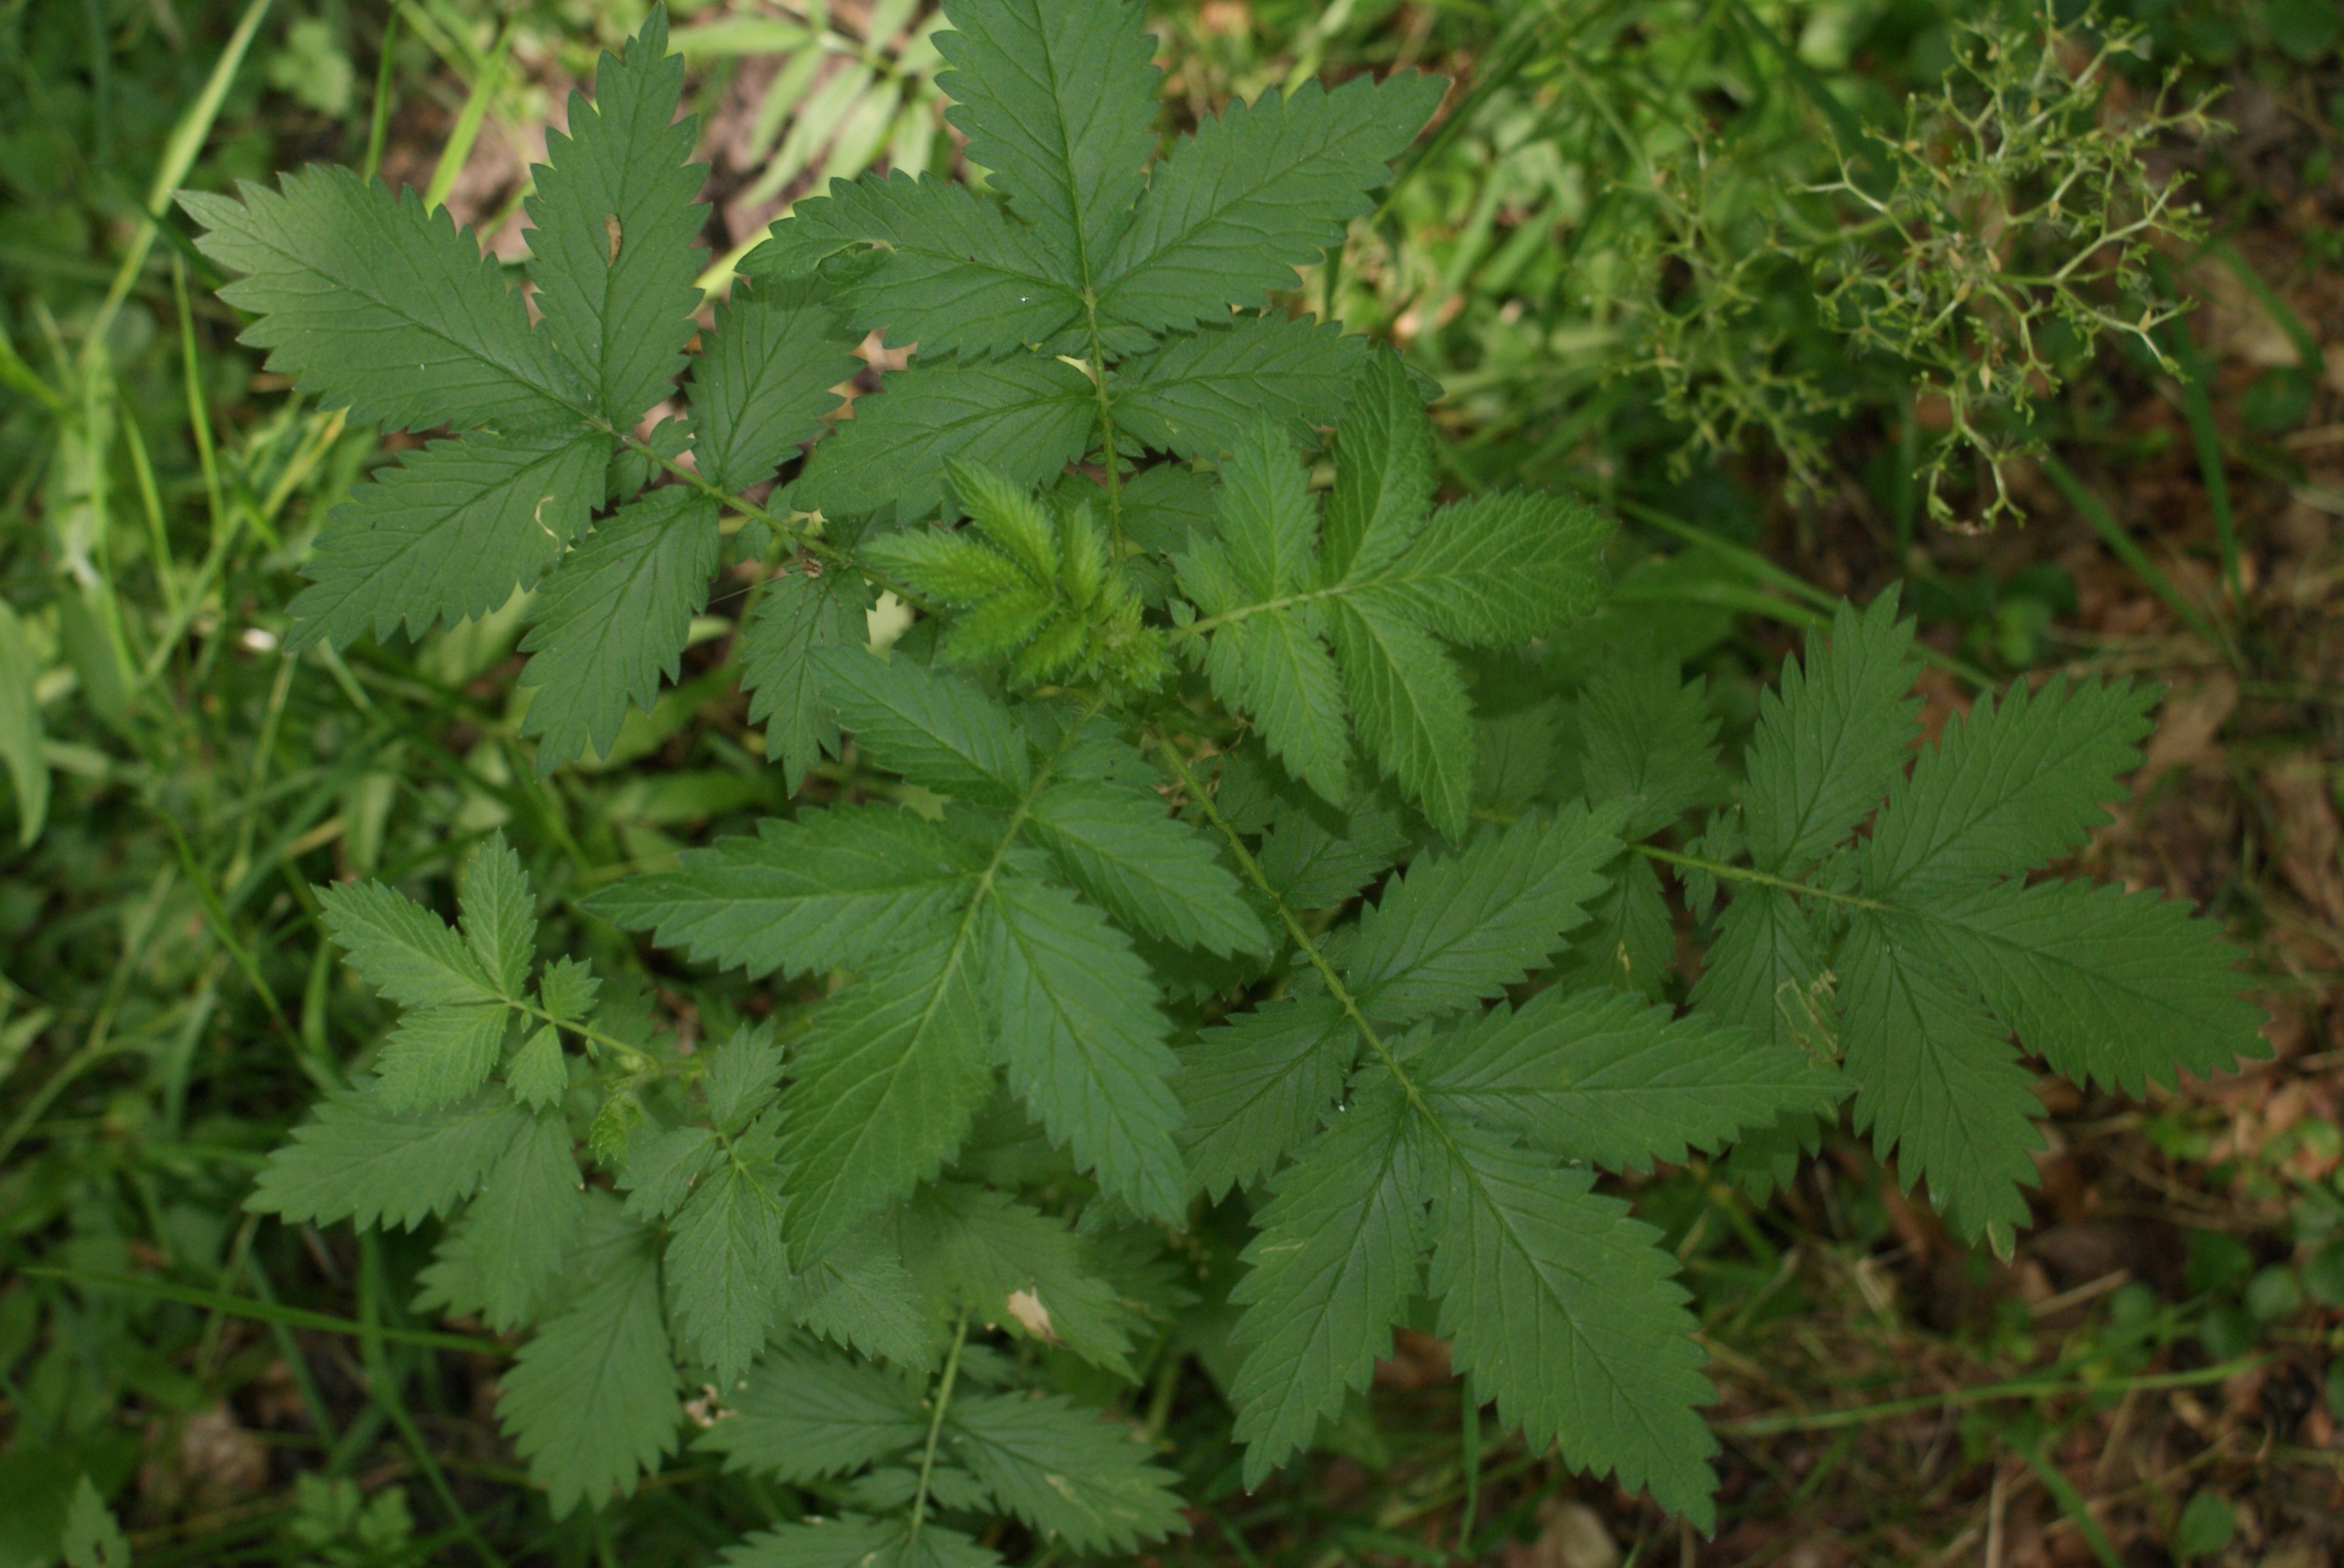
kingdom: Plantae
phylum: Tracheophyta
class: Magnoliopsida
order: Rosales
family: Rosaceae
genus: Agrimonia
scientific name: Agrimonia procera
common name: Vellugtende agermåne
